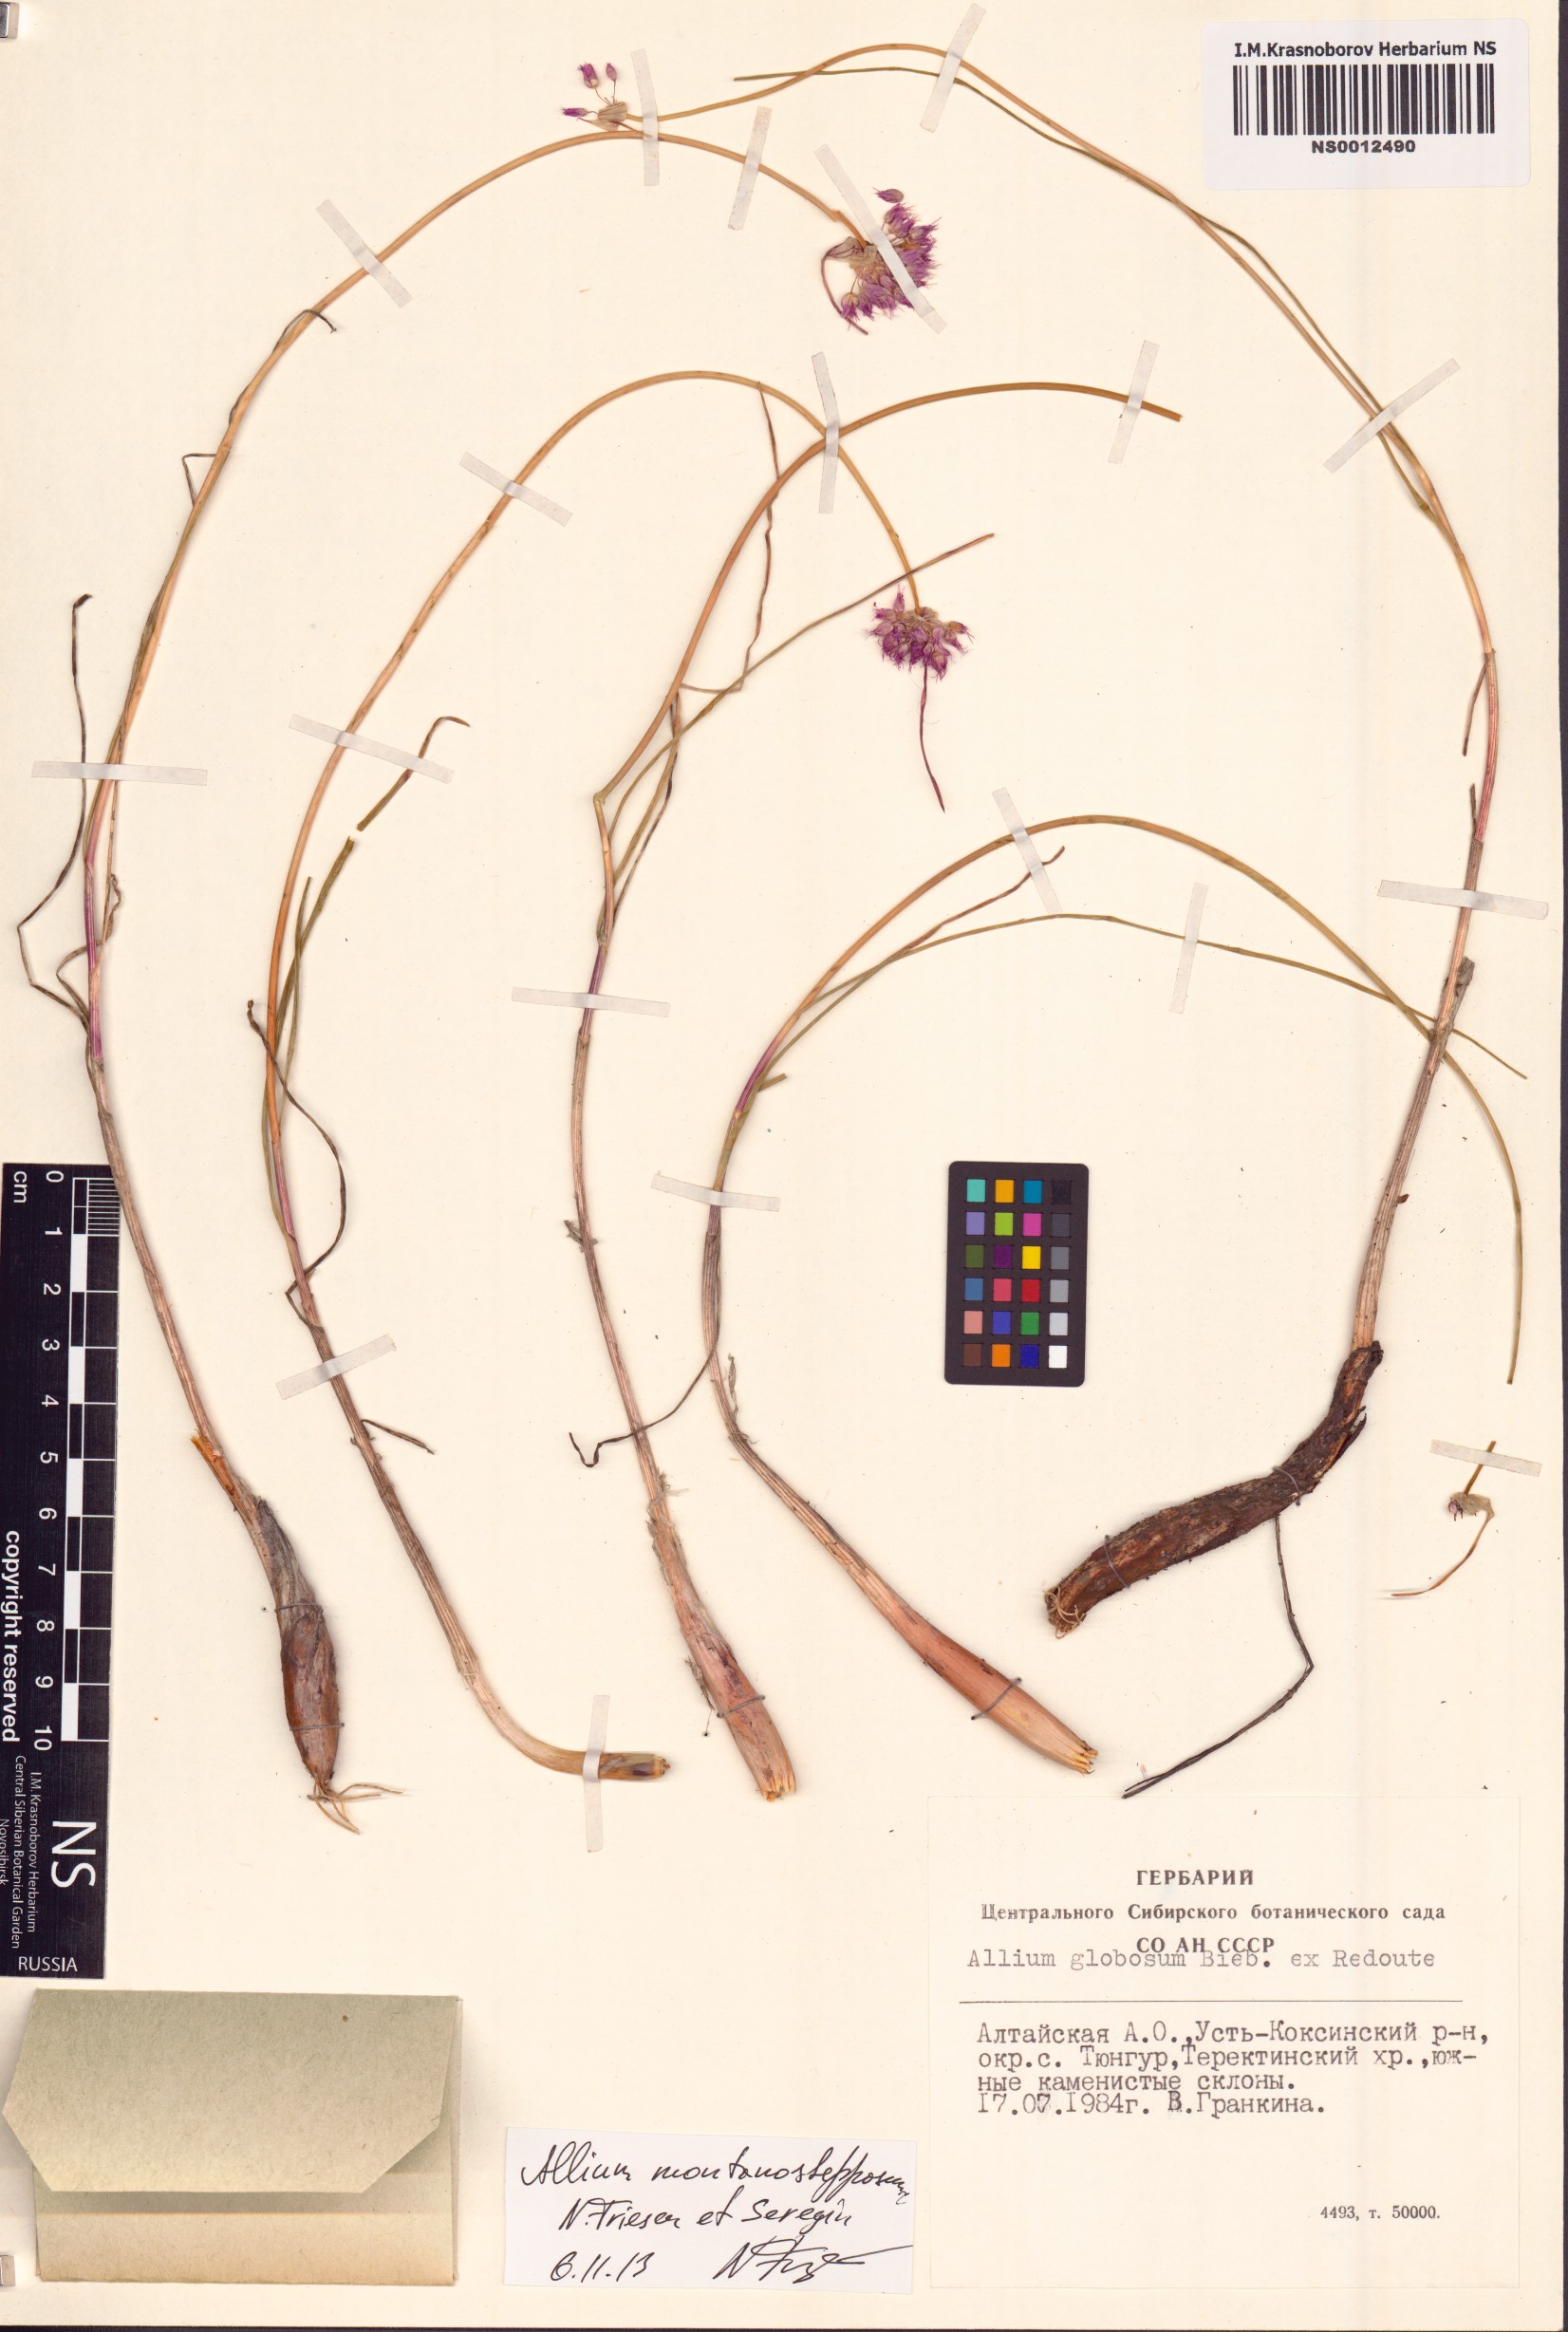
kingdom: Plantae
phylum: Tracheophyta
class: Liliopsida
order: Asparagales
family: Amaryllidaceae
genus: Allium
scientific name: Allium montanostepposum
